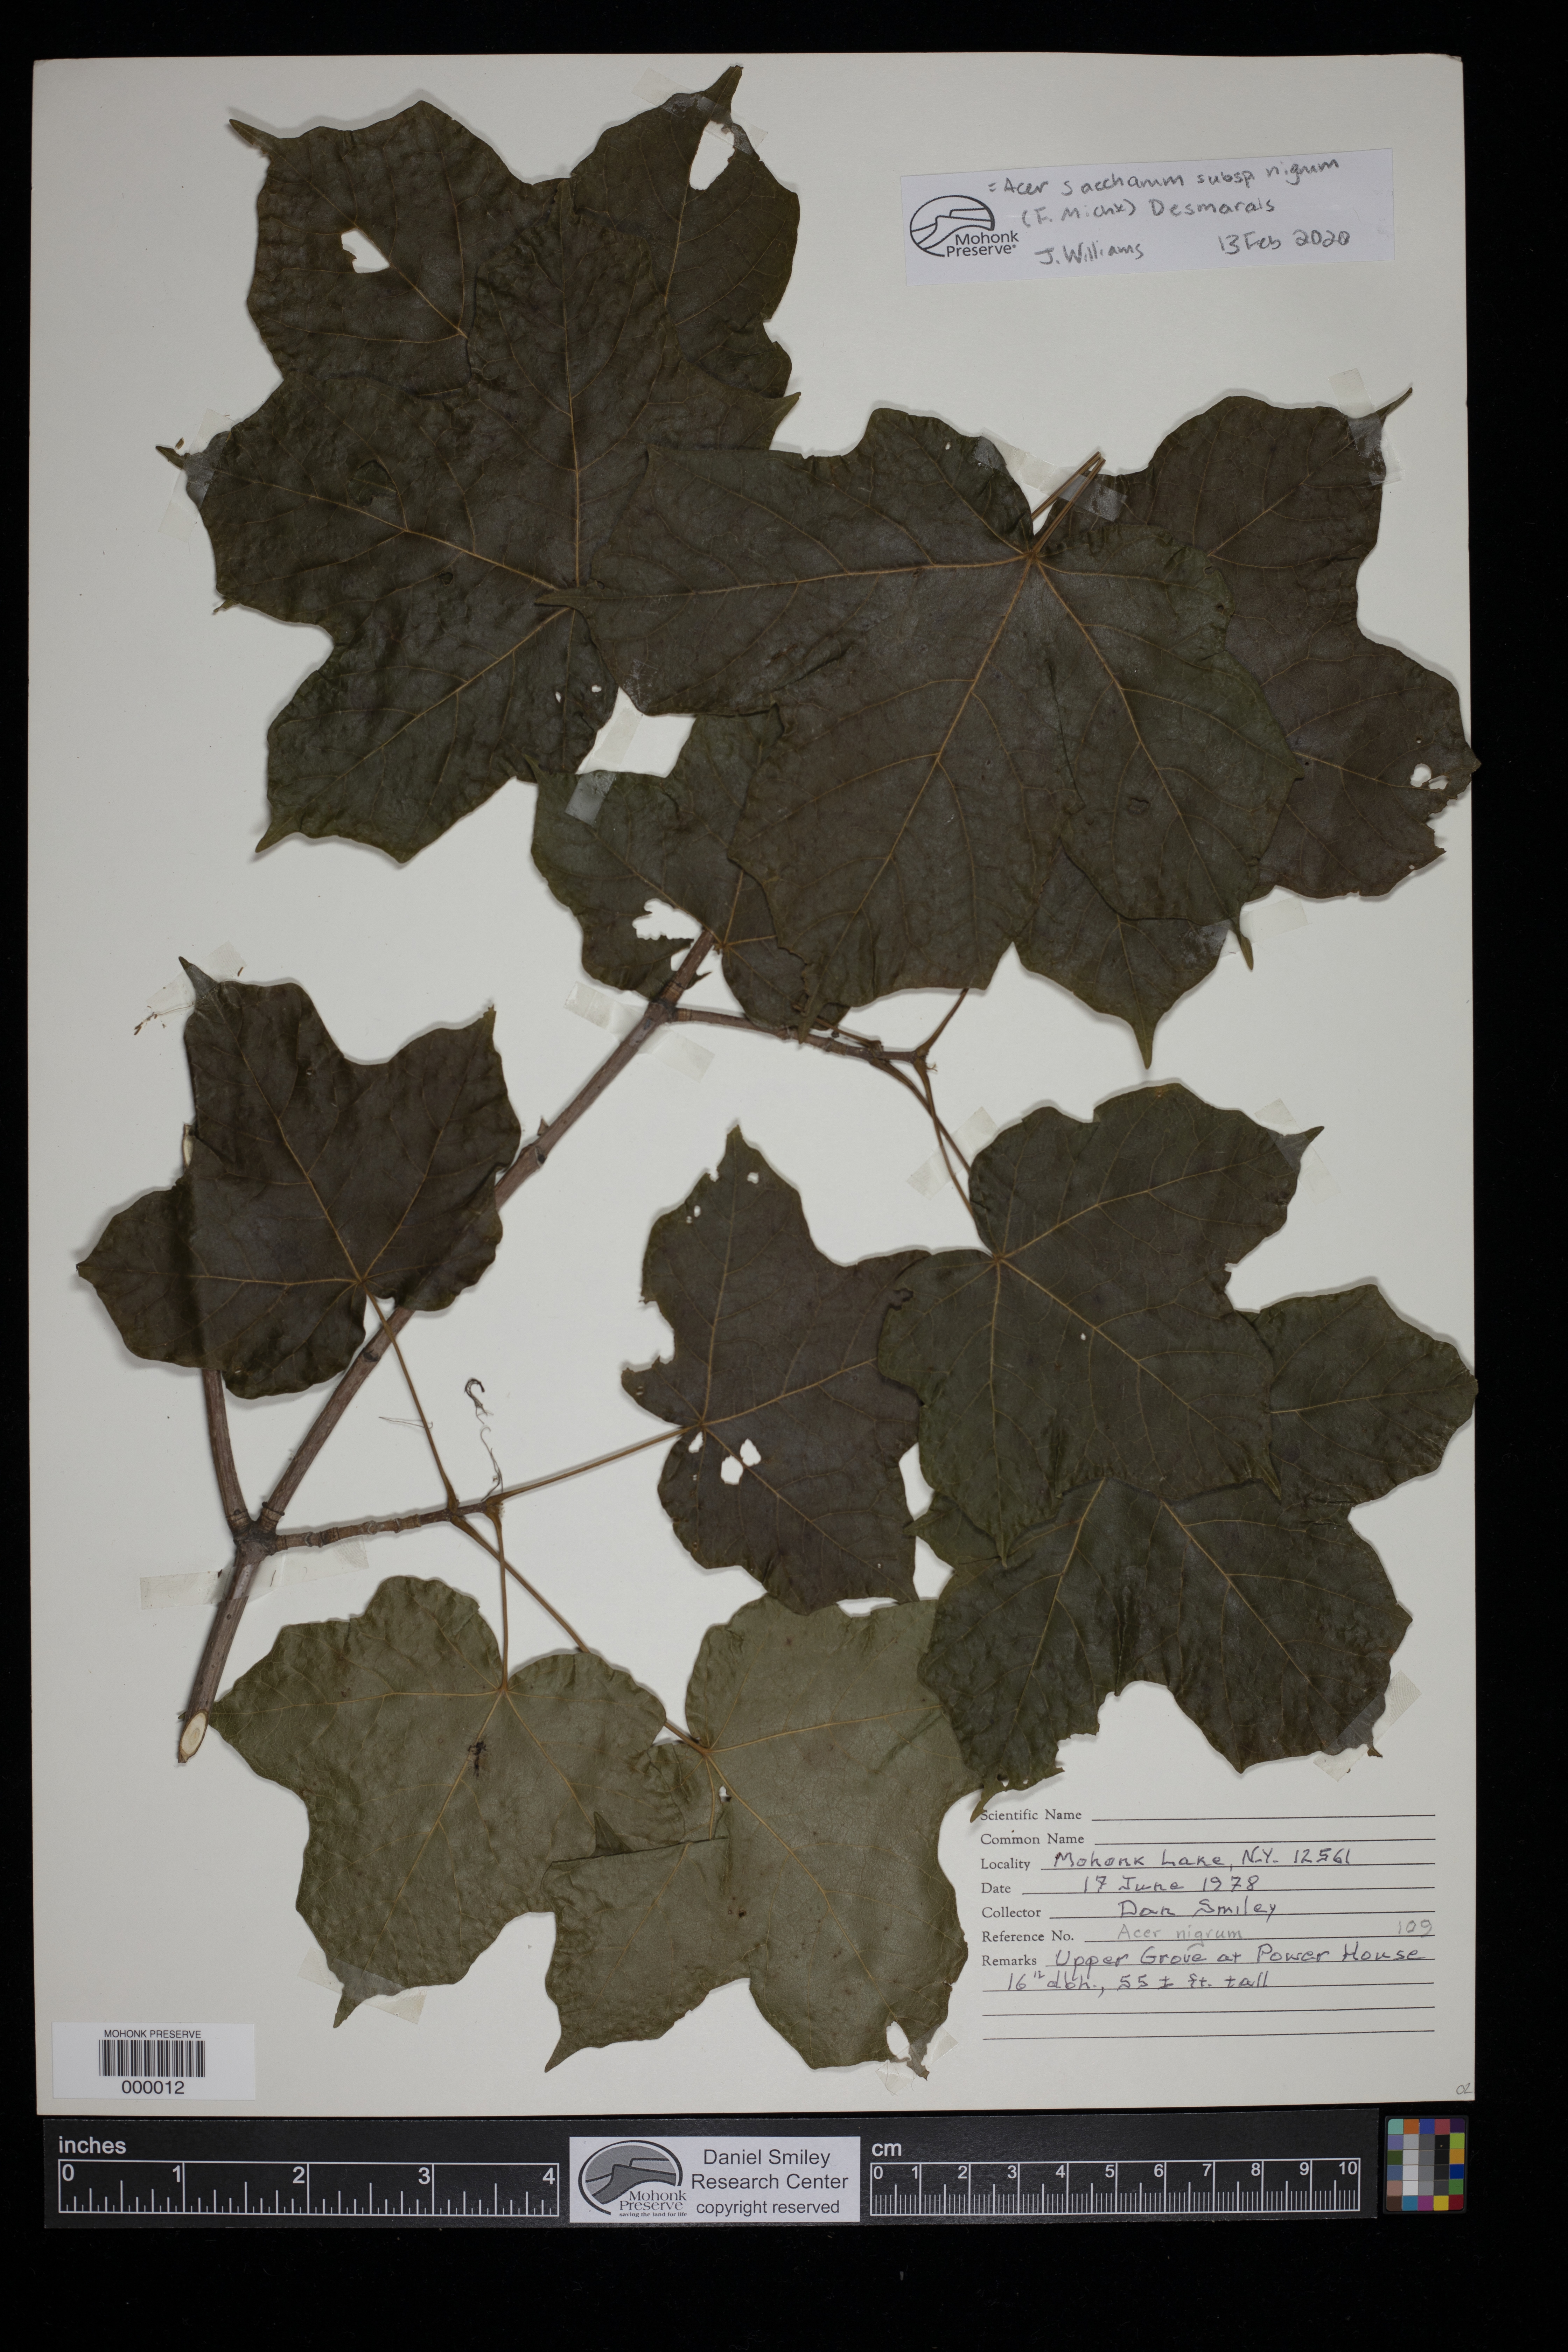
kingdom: Plantae
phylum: Tracheophyta
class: Magnoliopsida
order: Sapindales
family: Sapindaceae
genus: Acer
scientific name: Acer saccharum
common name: Sugar maple
